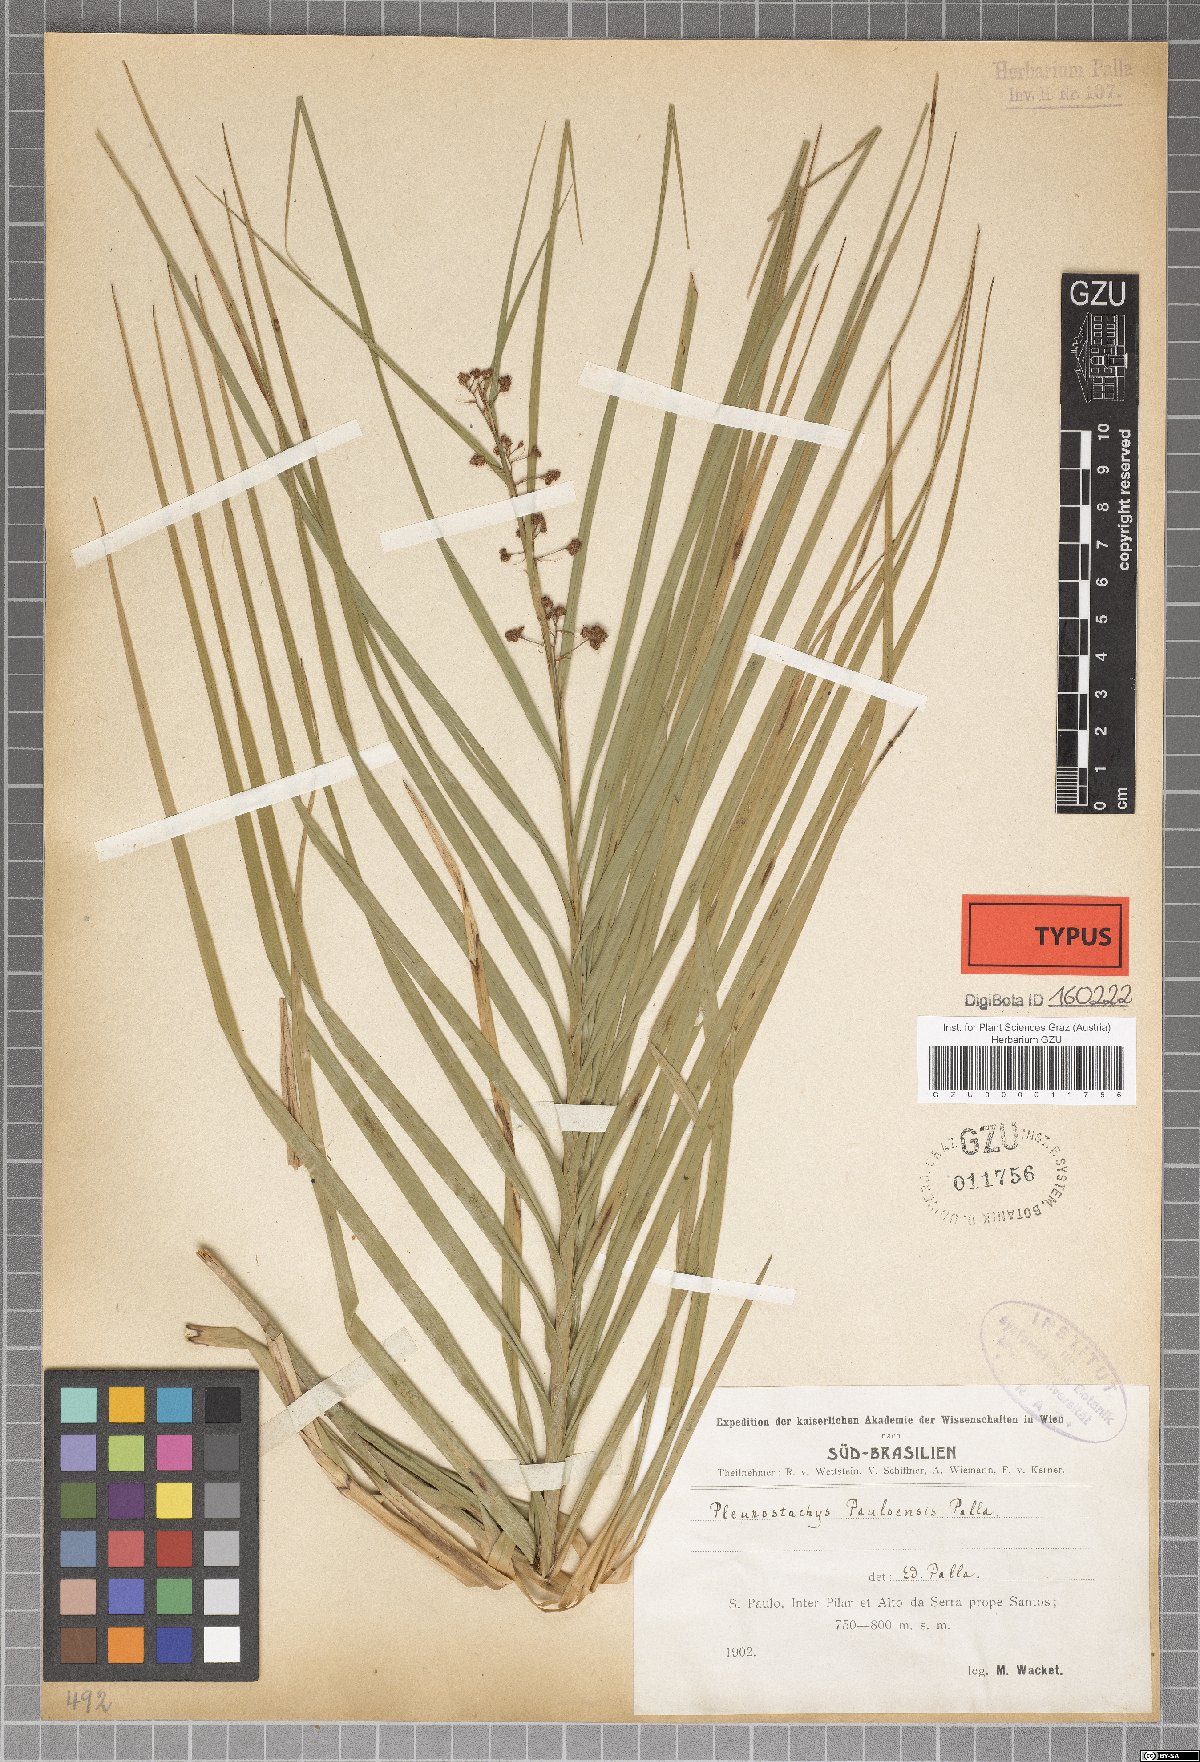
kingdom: Plantae
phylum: Tracheophyta
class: Liliopsida
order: Poales
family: Cyperaceae
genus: Rhynchospora
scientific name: Rhynchospora foliosa
